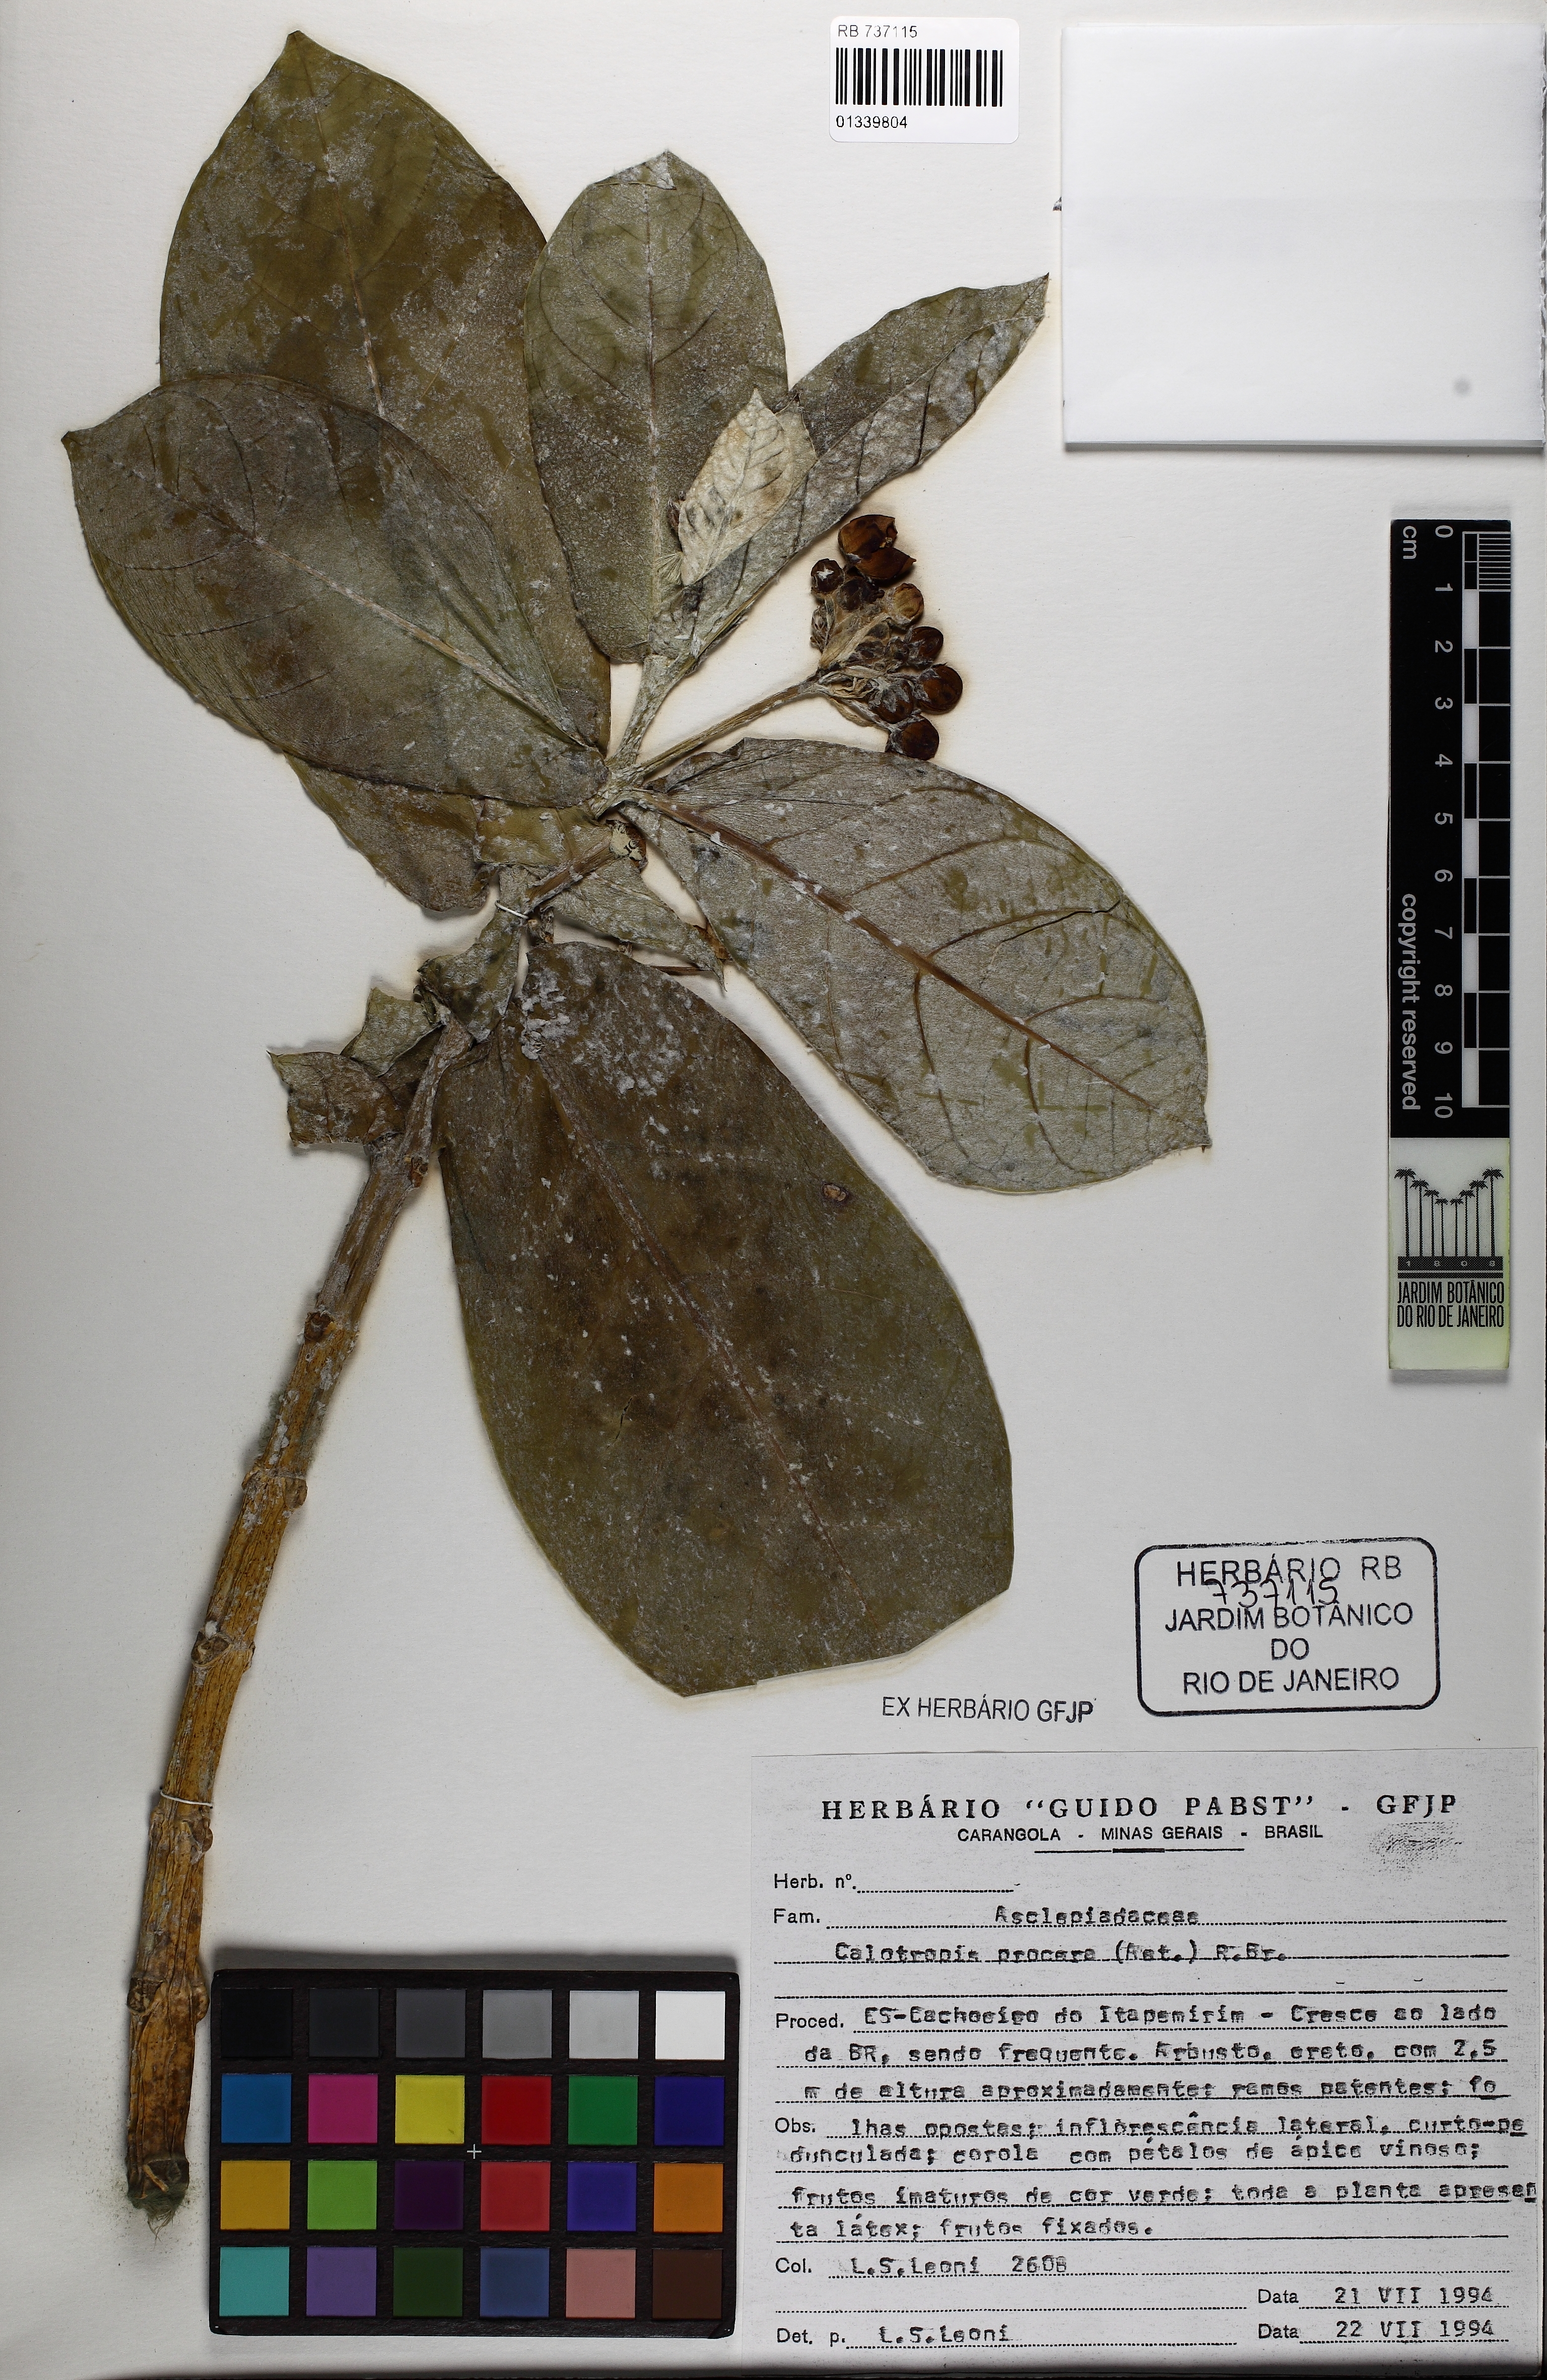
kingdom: Plantae
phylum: Tracheophyta
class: Magnoliopsida
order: Gentianales
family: Apocynaceae
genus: Calotropis
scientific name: Calotropis procera
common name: Roostertree
